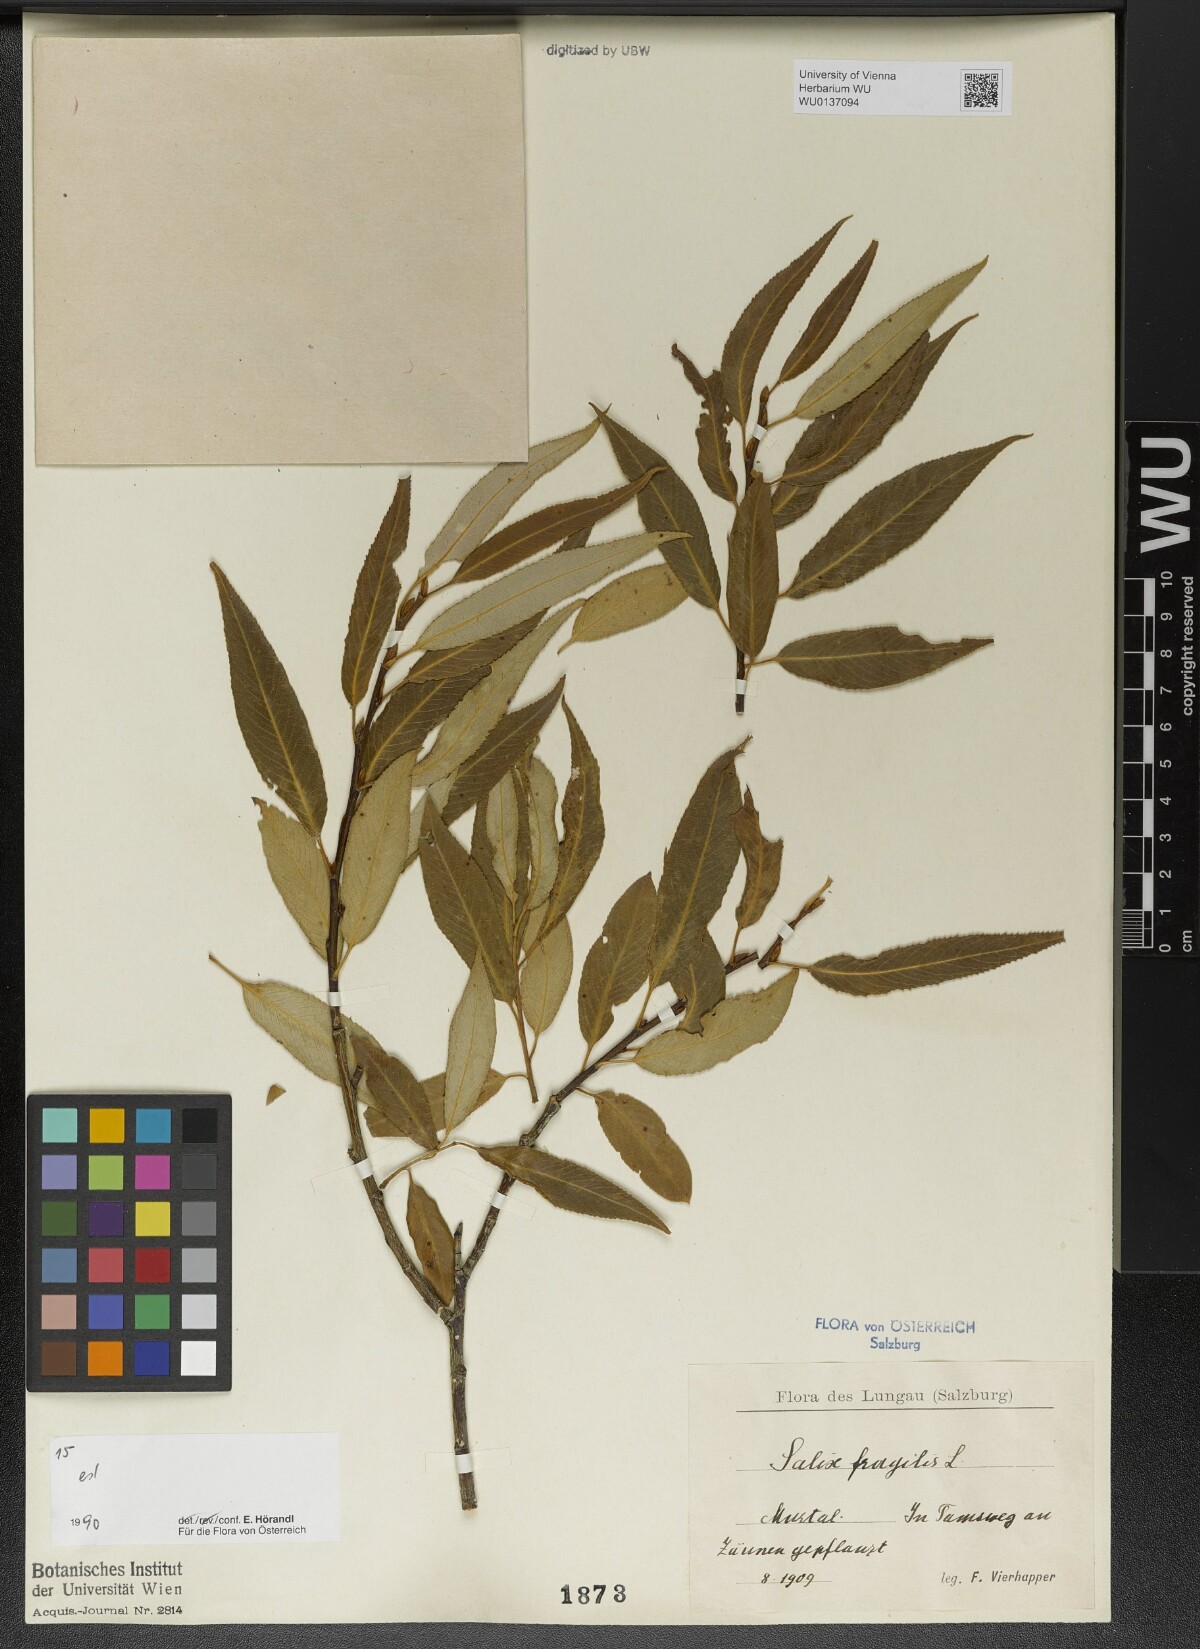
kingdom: Plantae
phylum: Tracheophyta
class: Magnoliopsida
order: Malpighiales
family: Salicaceae
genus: Salix
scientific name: Salix fragilis
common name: Crack willow
